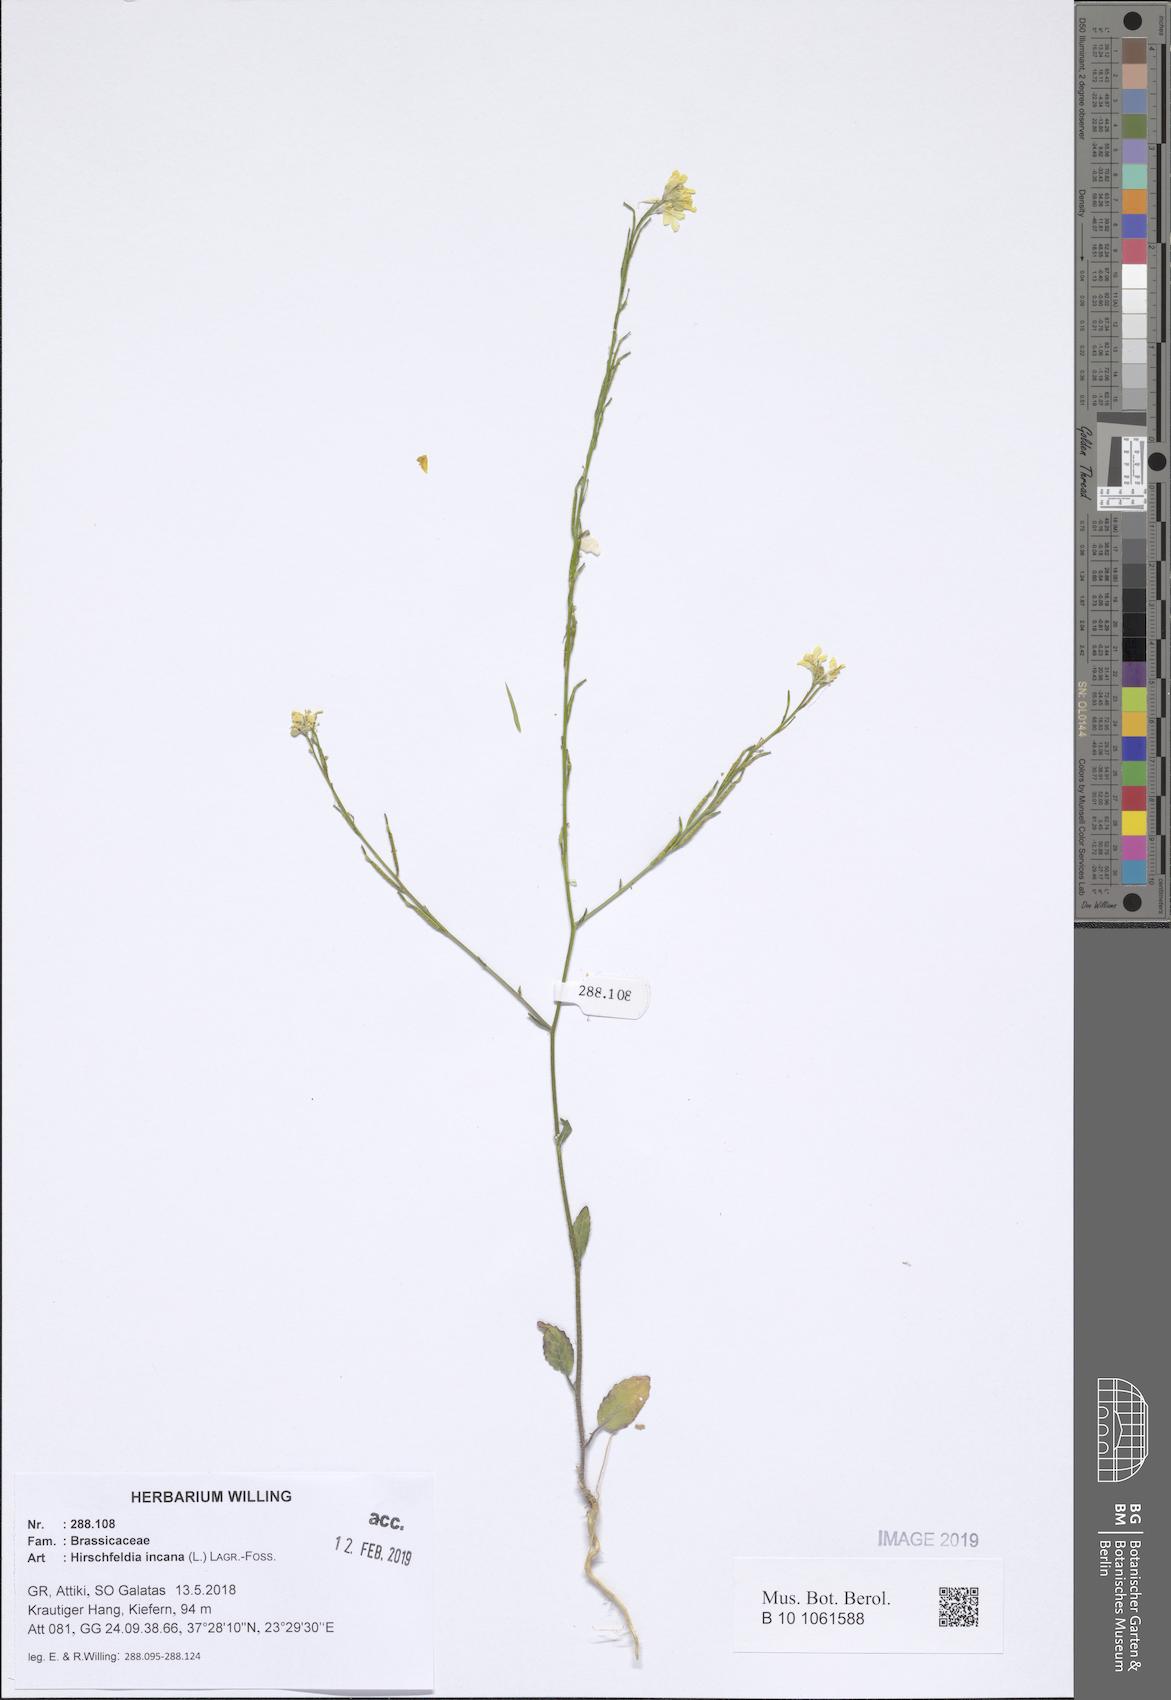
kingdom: Plantae
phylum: Tracheophyta
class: Magnoliopsida
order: Brassicales
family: Brassicaceae
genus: Hirschfeldia
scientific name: Hirschfeldia incana
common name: Hoary mustard
